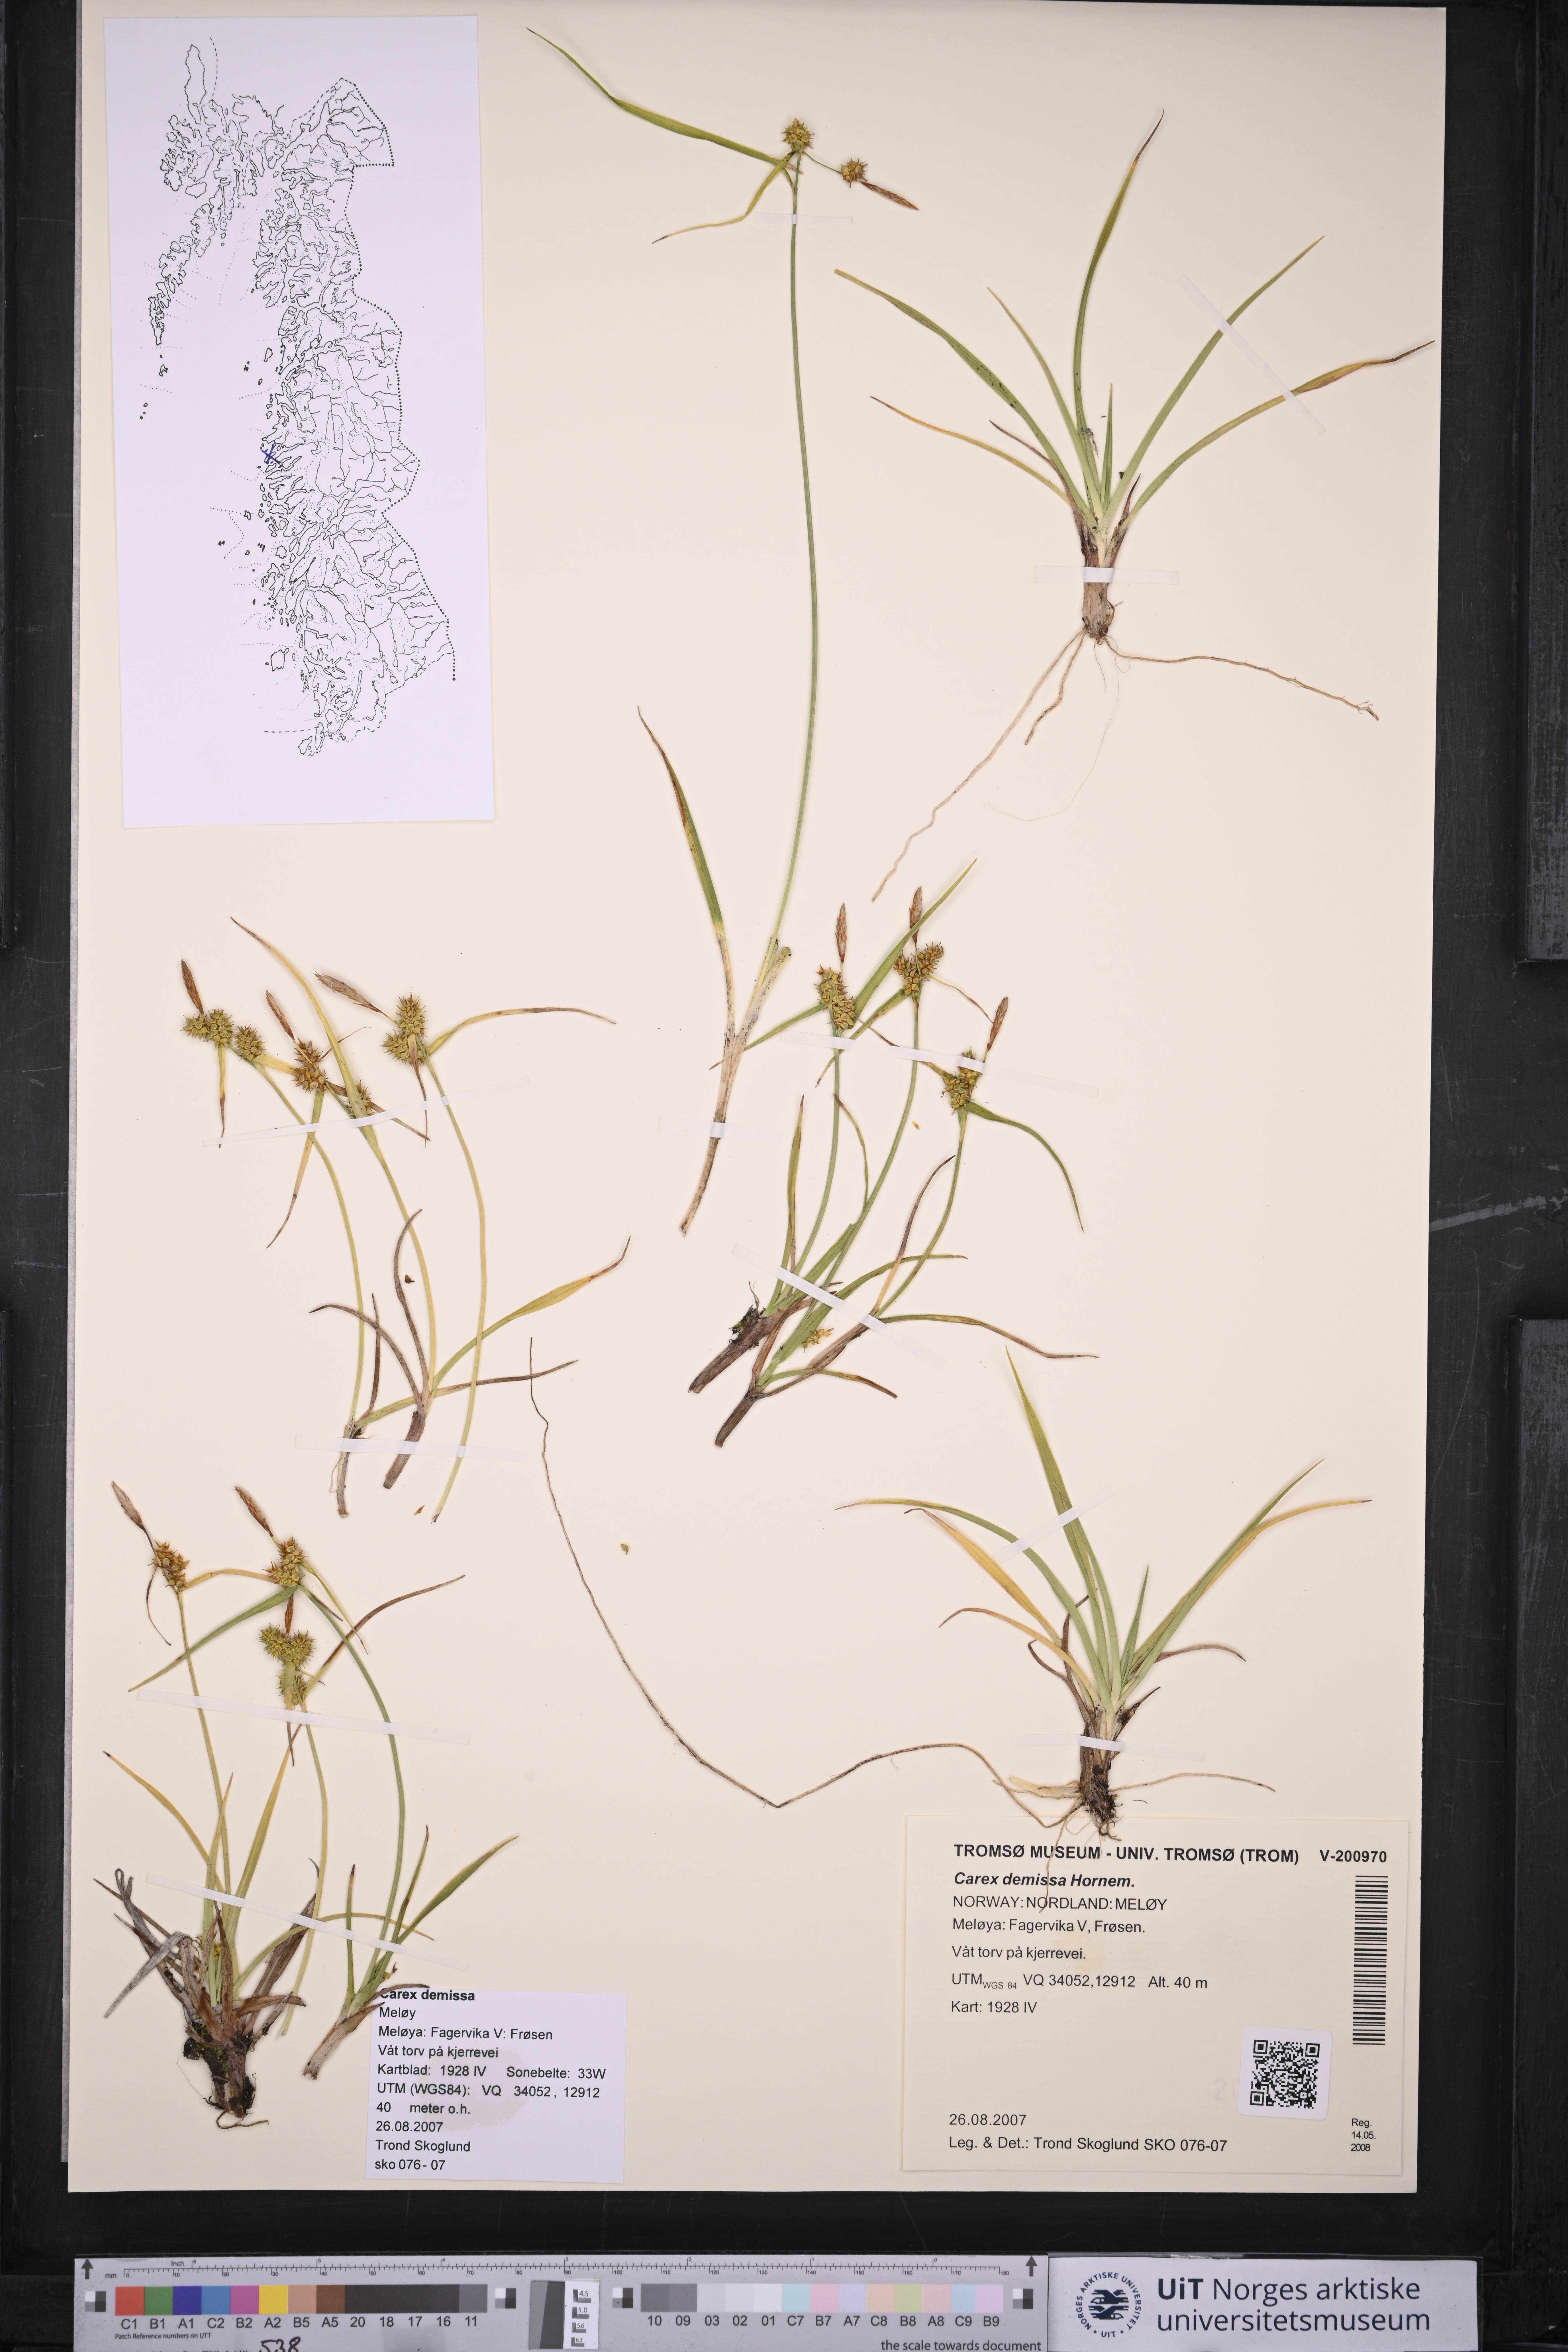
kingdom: Plantae
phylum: Tracheophyta
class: Liliopsida
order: Poales
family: Cyperaceae
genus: Carex
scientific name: Carex demissa
